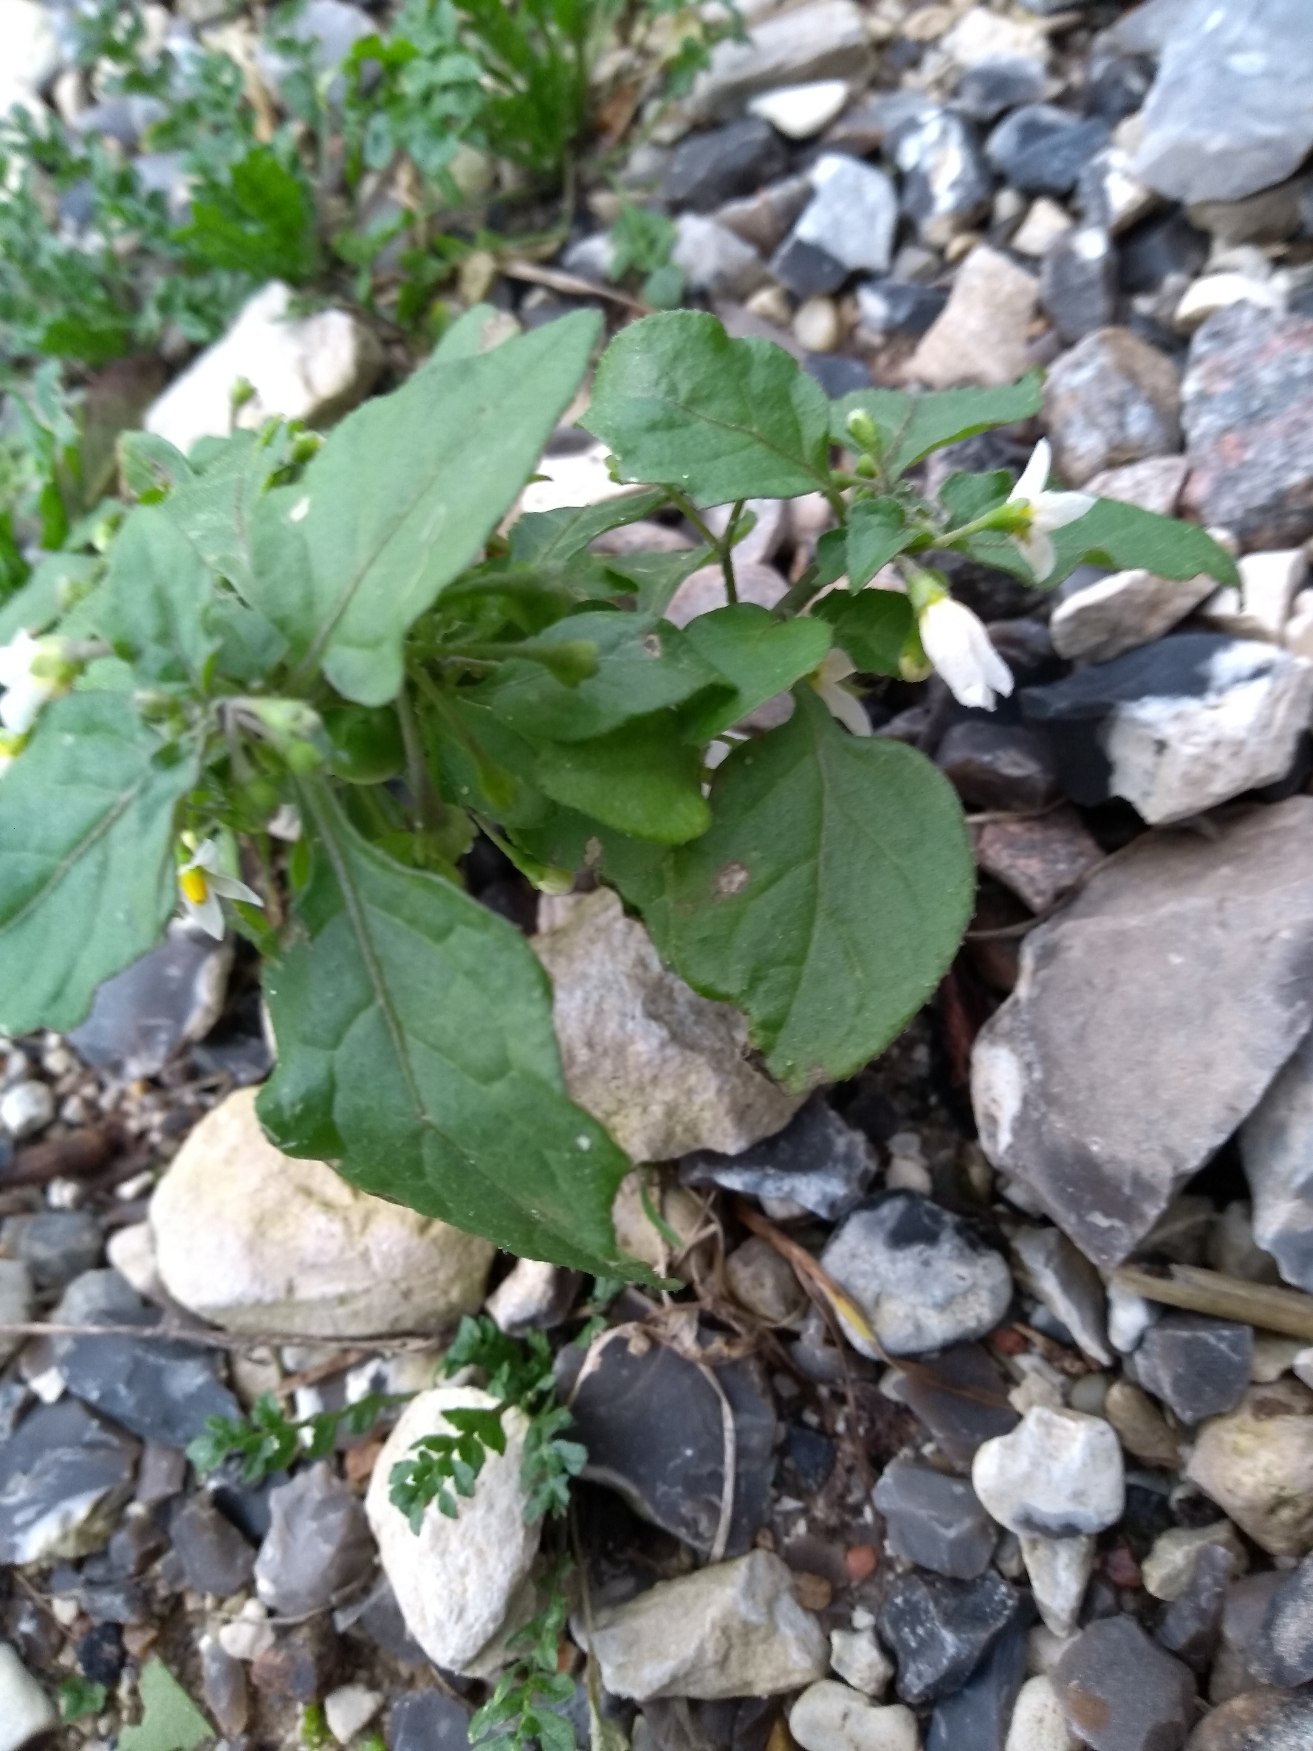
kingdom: Plantae
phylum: Tracheophyta
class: Magnoliopsida
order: Solanales
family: Solanaceae
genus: Solanum
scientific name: Solanum nigrum
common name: Sort natskygge (underart)
